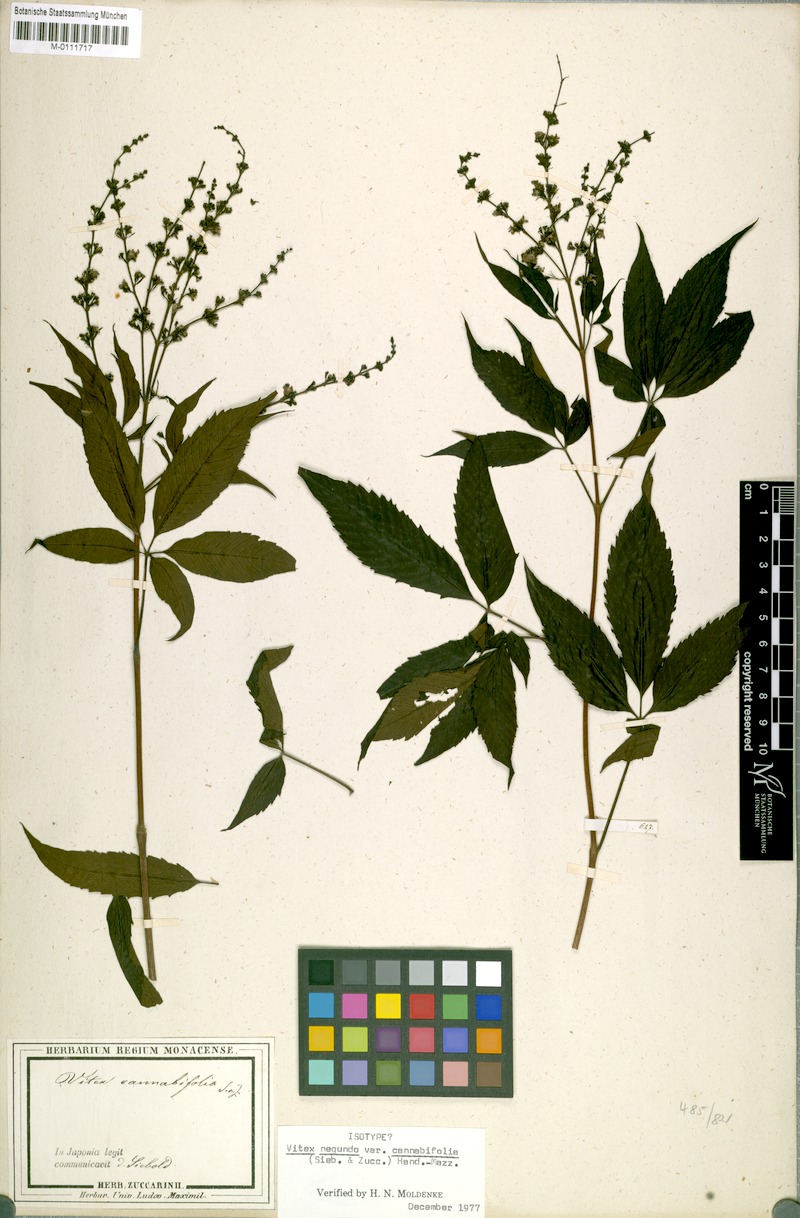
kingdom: Plantae
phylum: Tracheophyta
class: Magnoliopsida
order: Lamiales
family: Lamiaceae
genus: Vitex
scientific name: Vitex negundo
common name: Chinese chastetree
